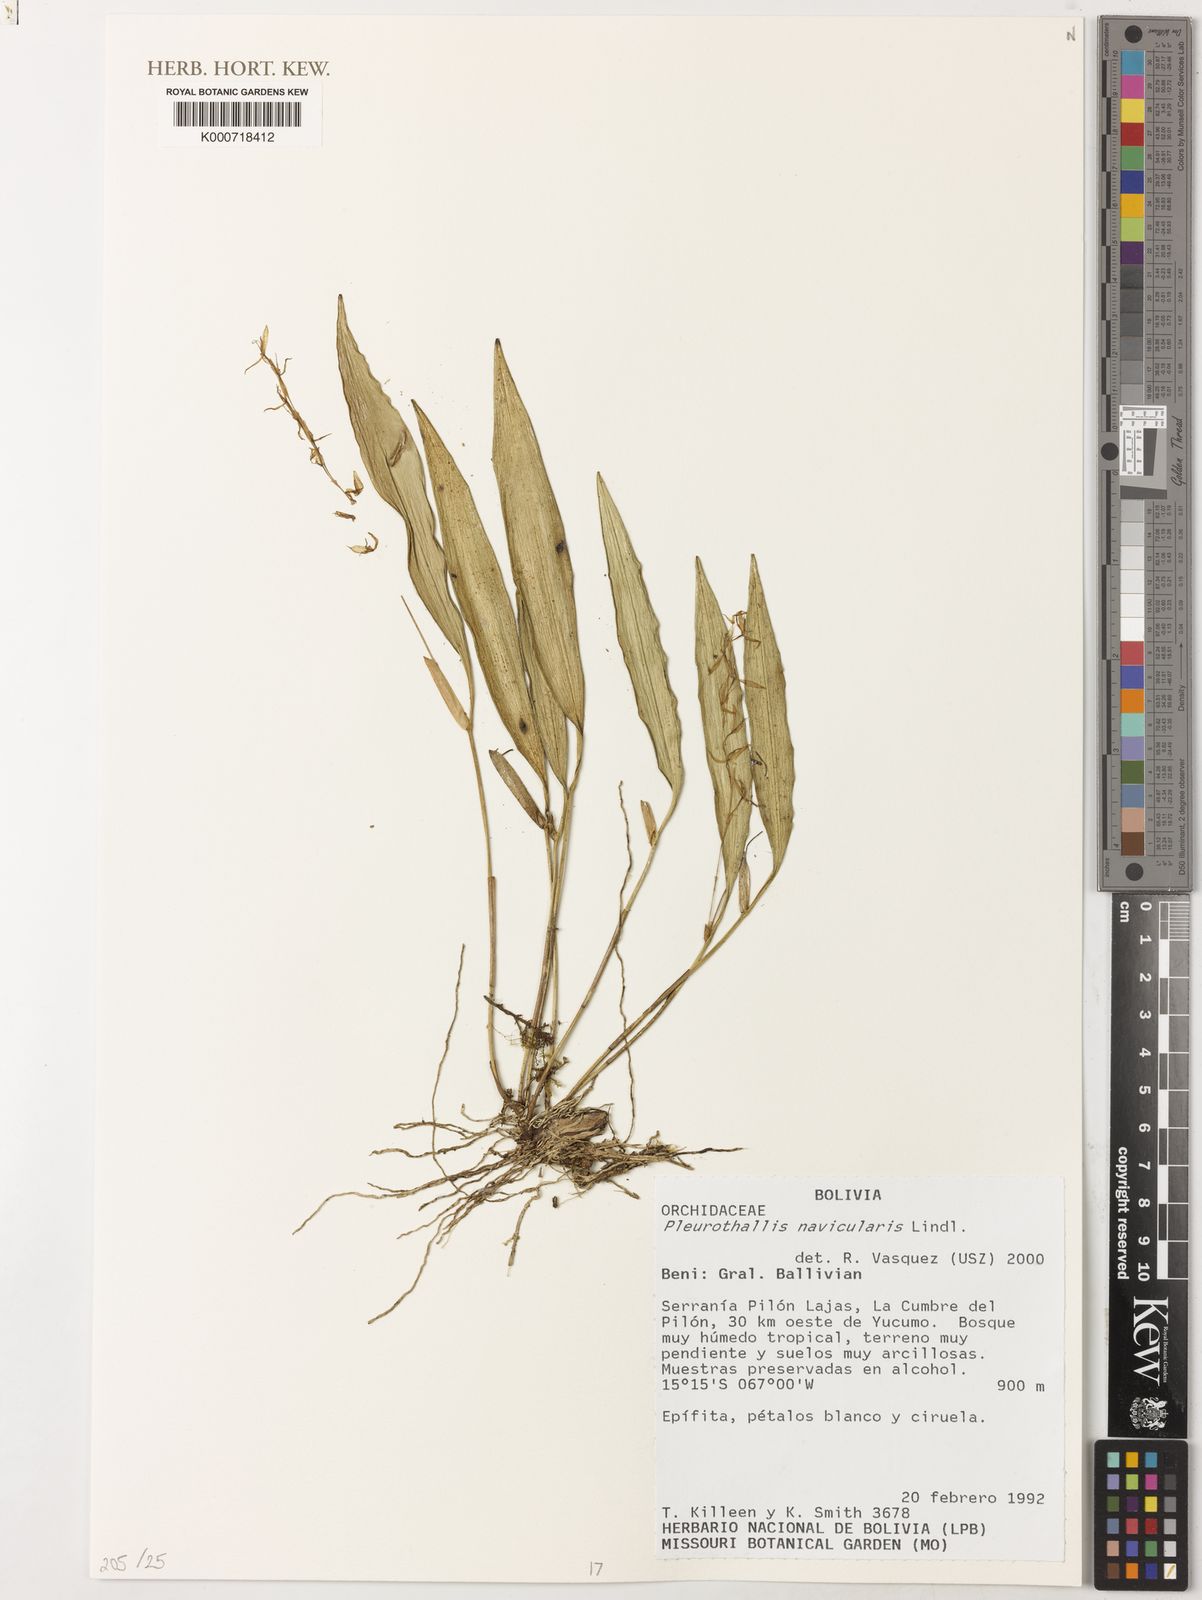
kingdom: Plantae
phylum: Tracheophyta
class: Liliopsida
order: Asparagales
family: Orchidaceae
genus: Pleurothallis
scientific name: Pleurothallis loranthophylla
